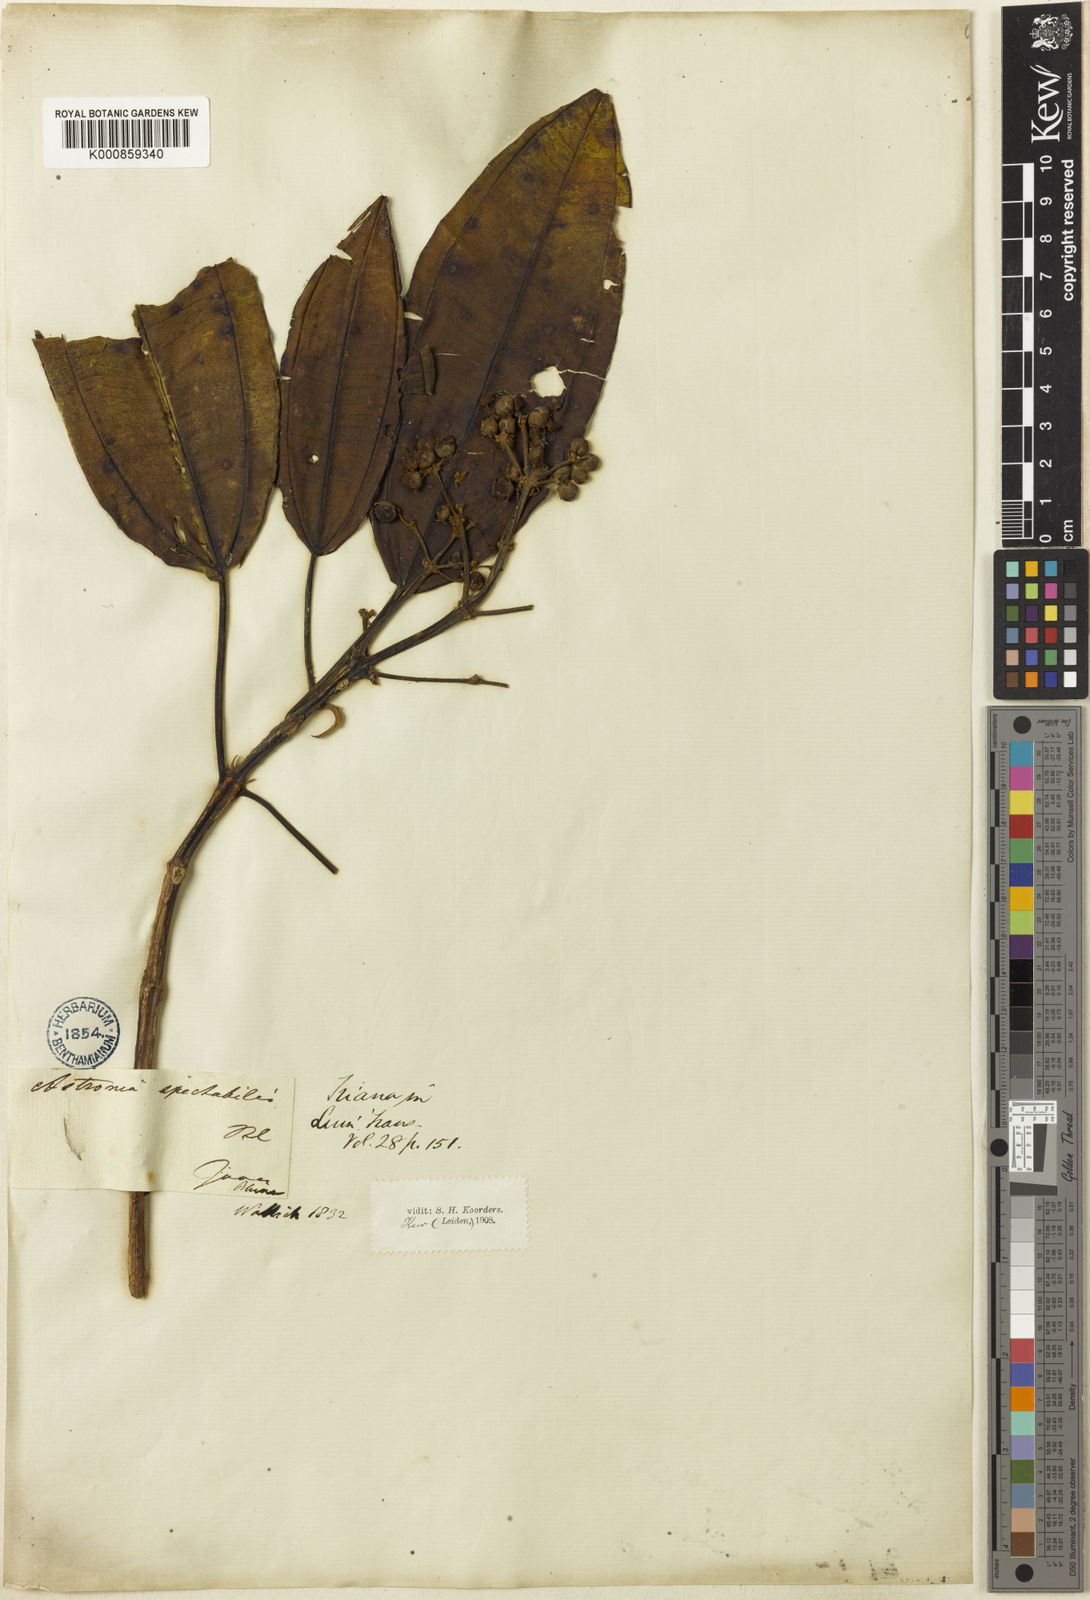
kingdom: Plantae
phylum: Tracheophyta
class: Magnoliopsida
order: Myrtales
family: Melastomataceae
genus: Astronia
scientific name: Astronia spectabilis
